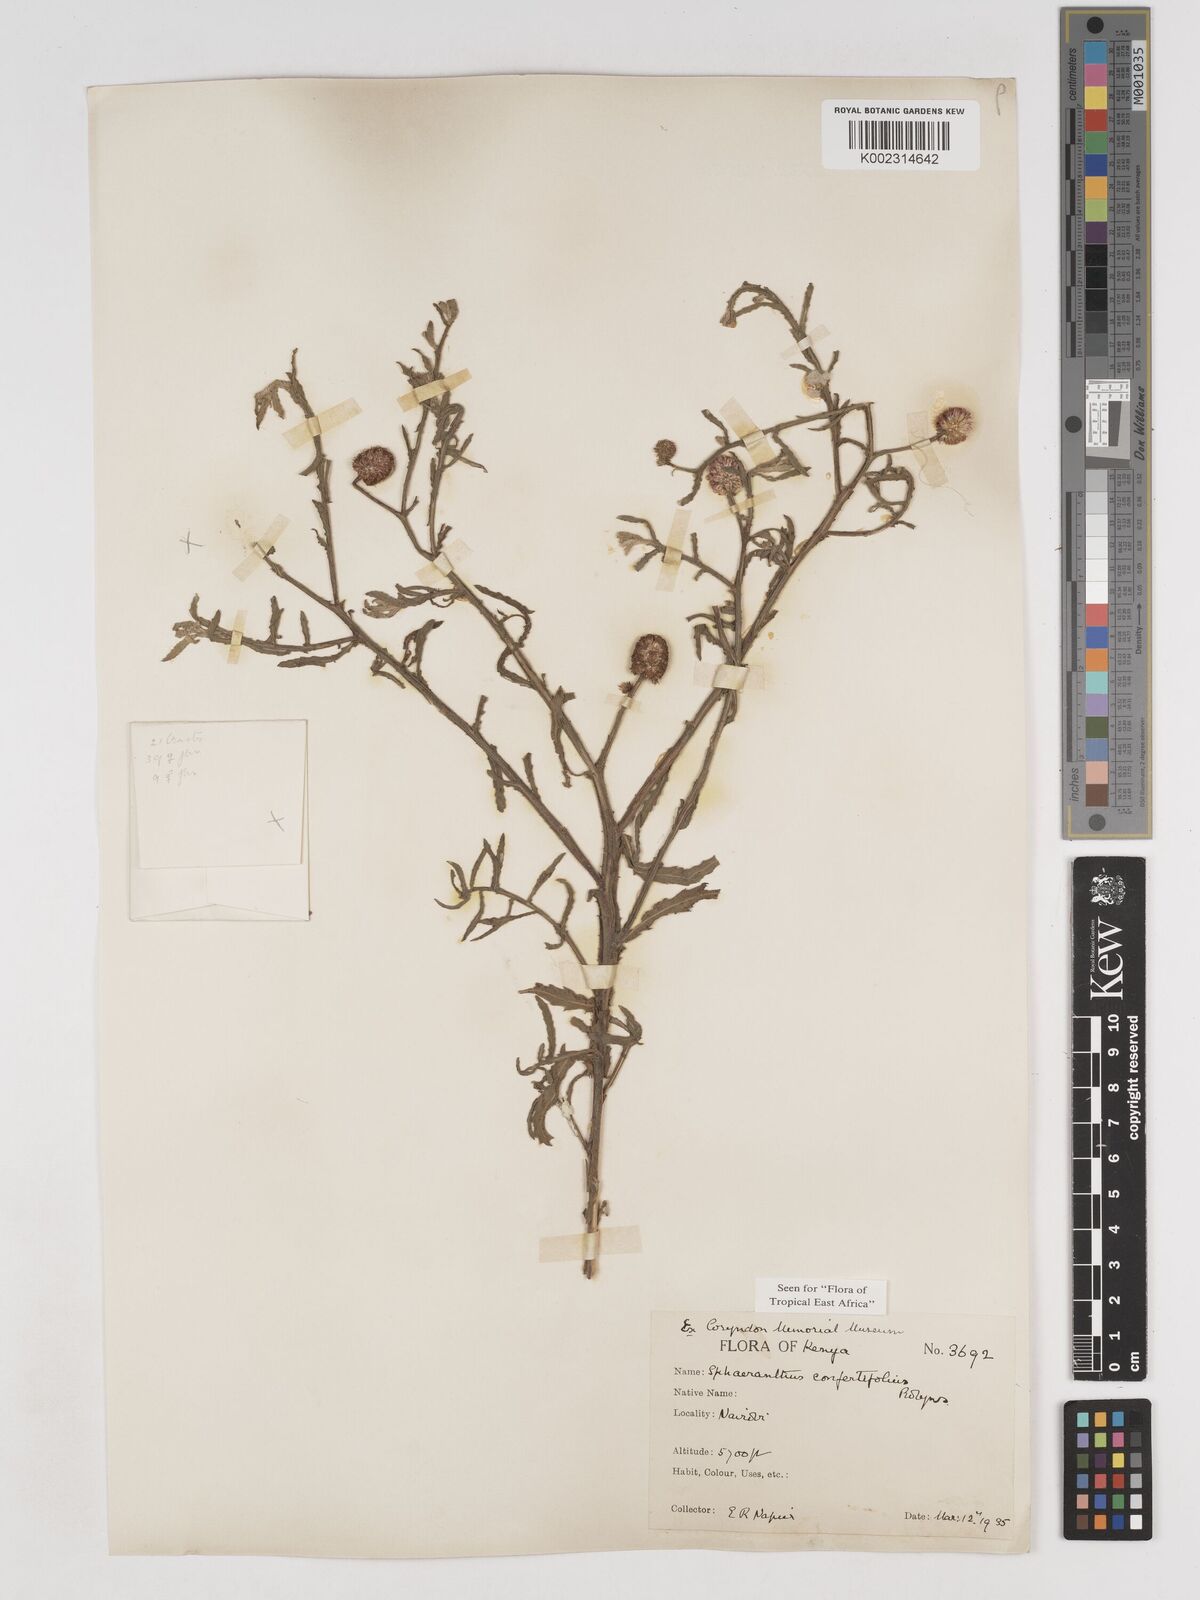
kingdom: Plantae
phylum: Tracheophyta
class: Magnoliopsida
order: Asterales
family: Asteraceae
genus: Sphaeranthus
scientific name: Sphaeranthus confertifolius
